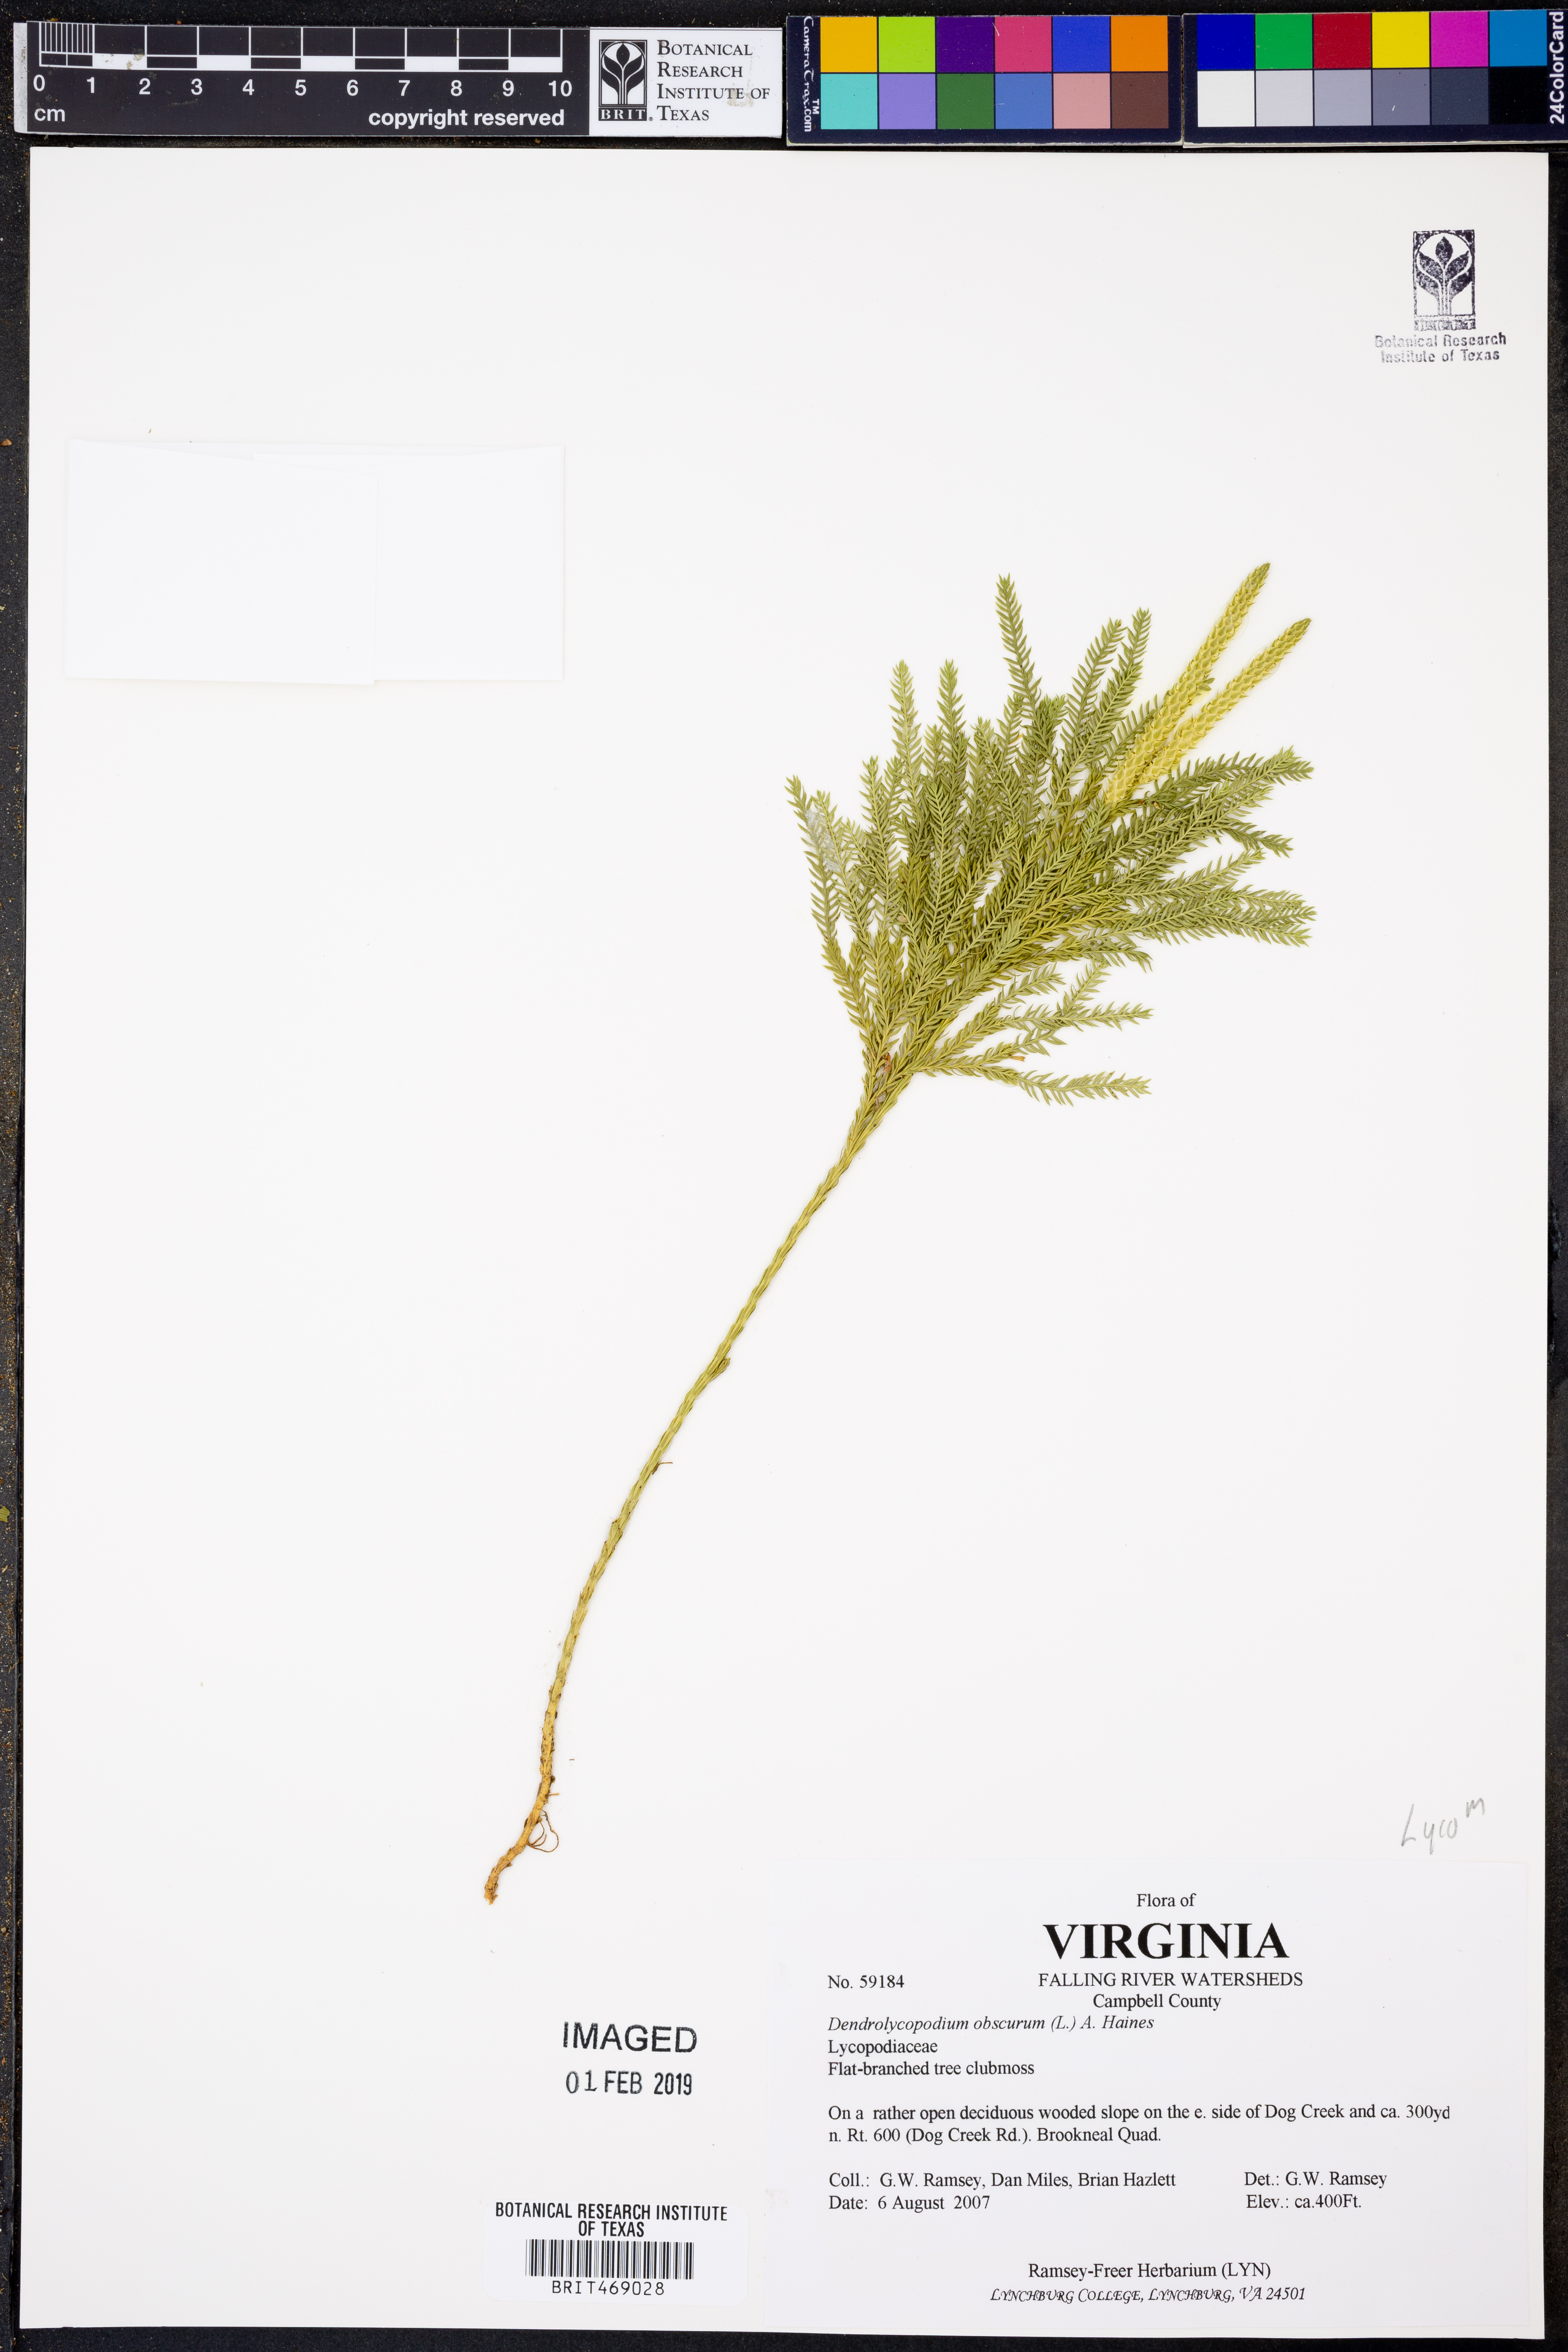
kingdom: Plantae
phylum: Tracheophyta
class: Lycopodiopsida
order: Lycopodiales
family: Lycopodiaceae
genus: Dendrolycopodium
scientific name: Dendrolycopodium obscurum
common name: Common ground-pine
